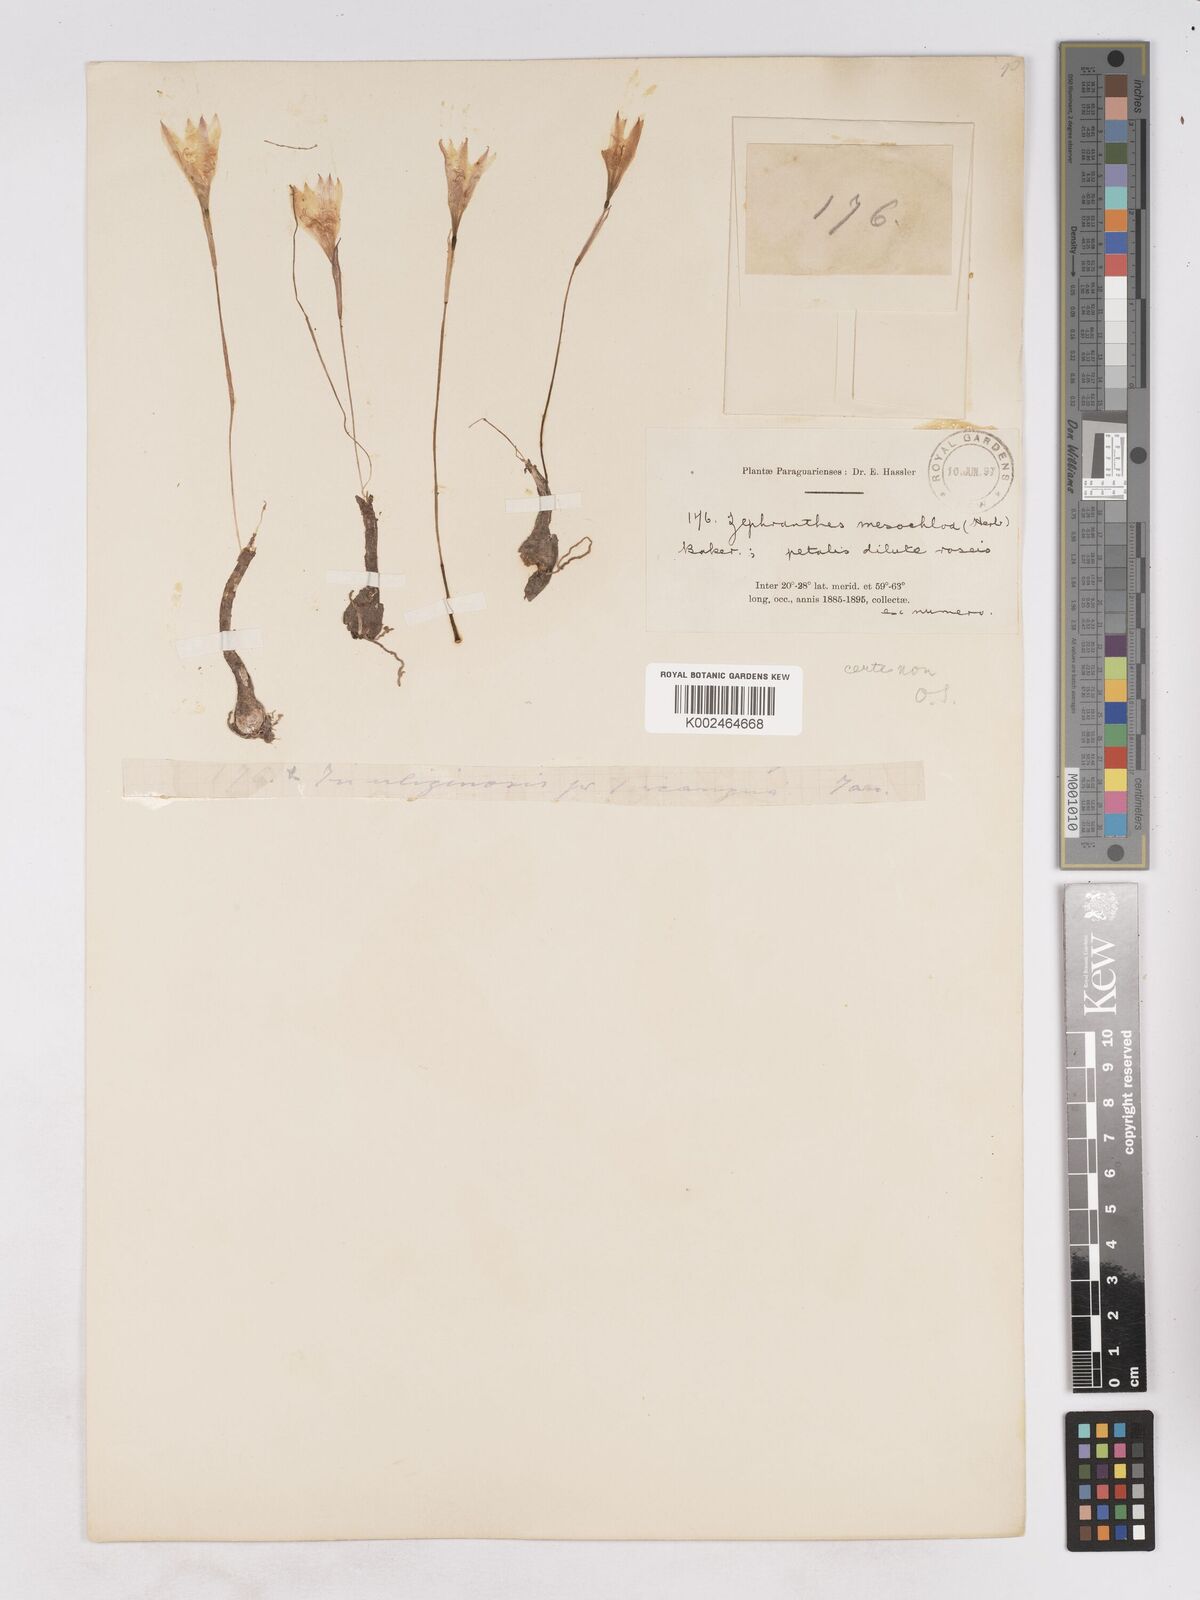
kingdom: Plantae
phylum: Tracheophyta
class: Liliopsida
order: Asparagales
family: Amaryllidaceae
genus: Zephyranthes
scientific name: Zephyranthes mesochloa
